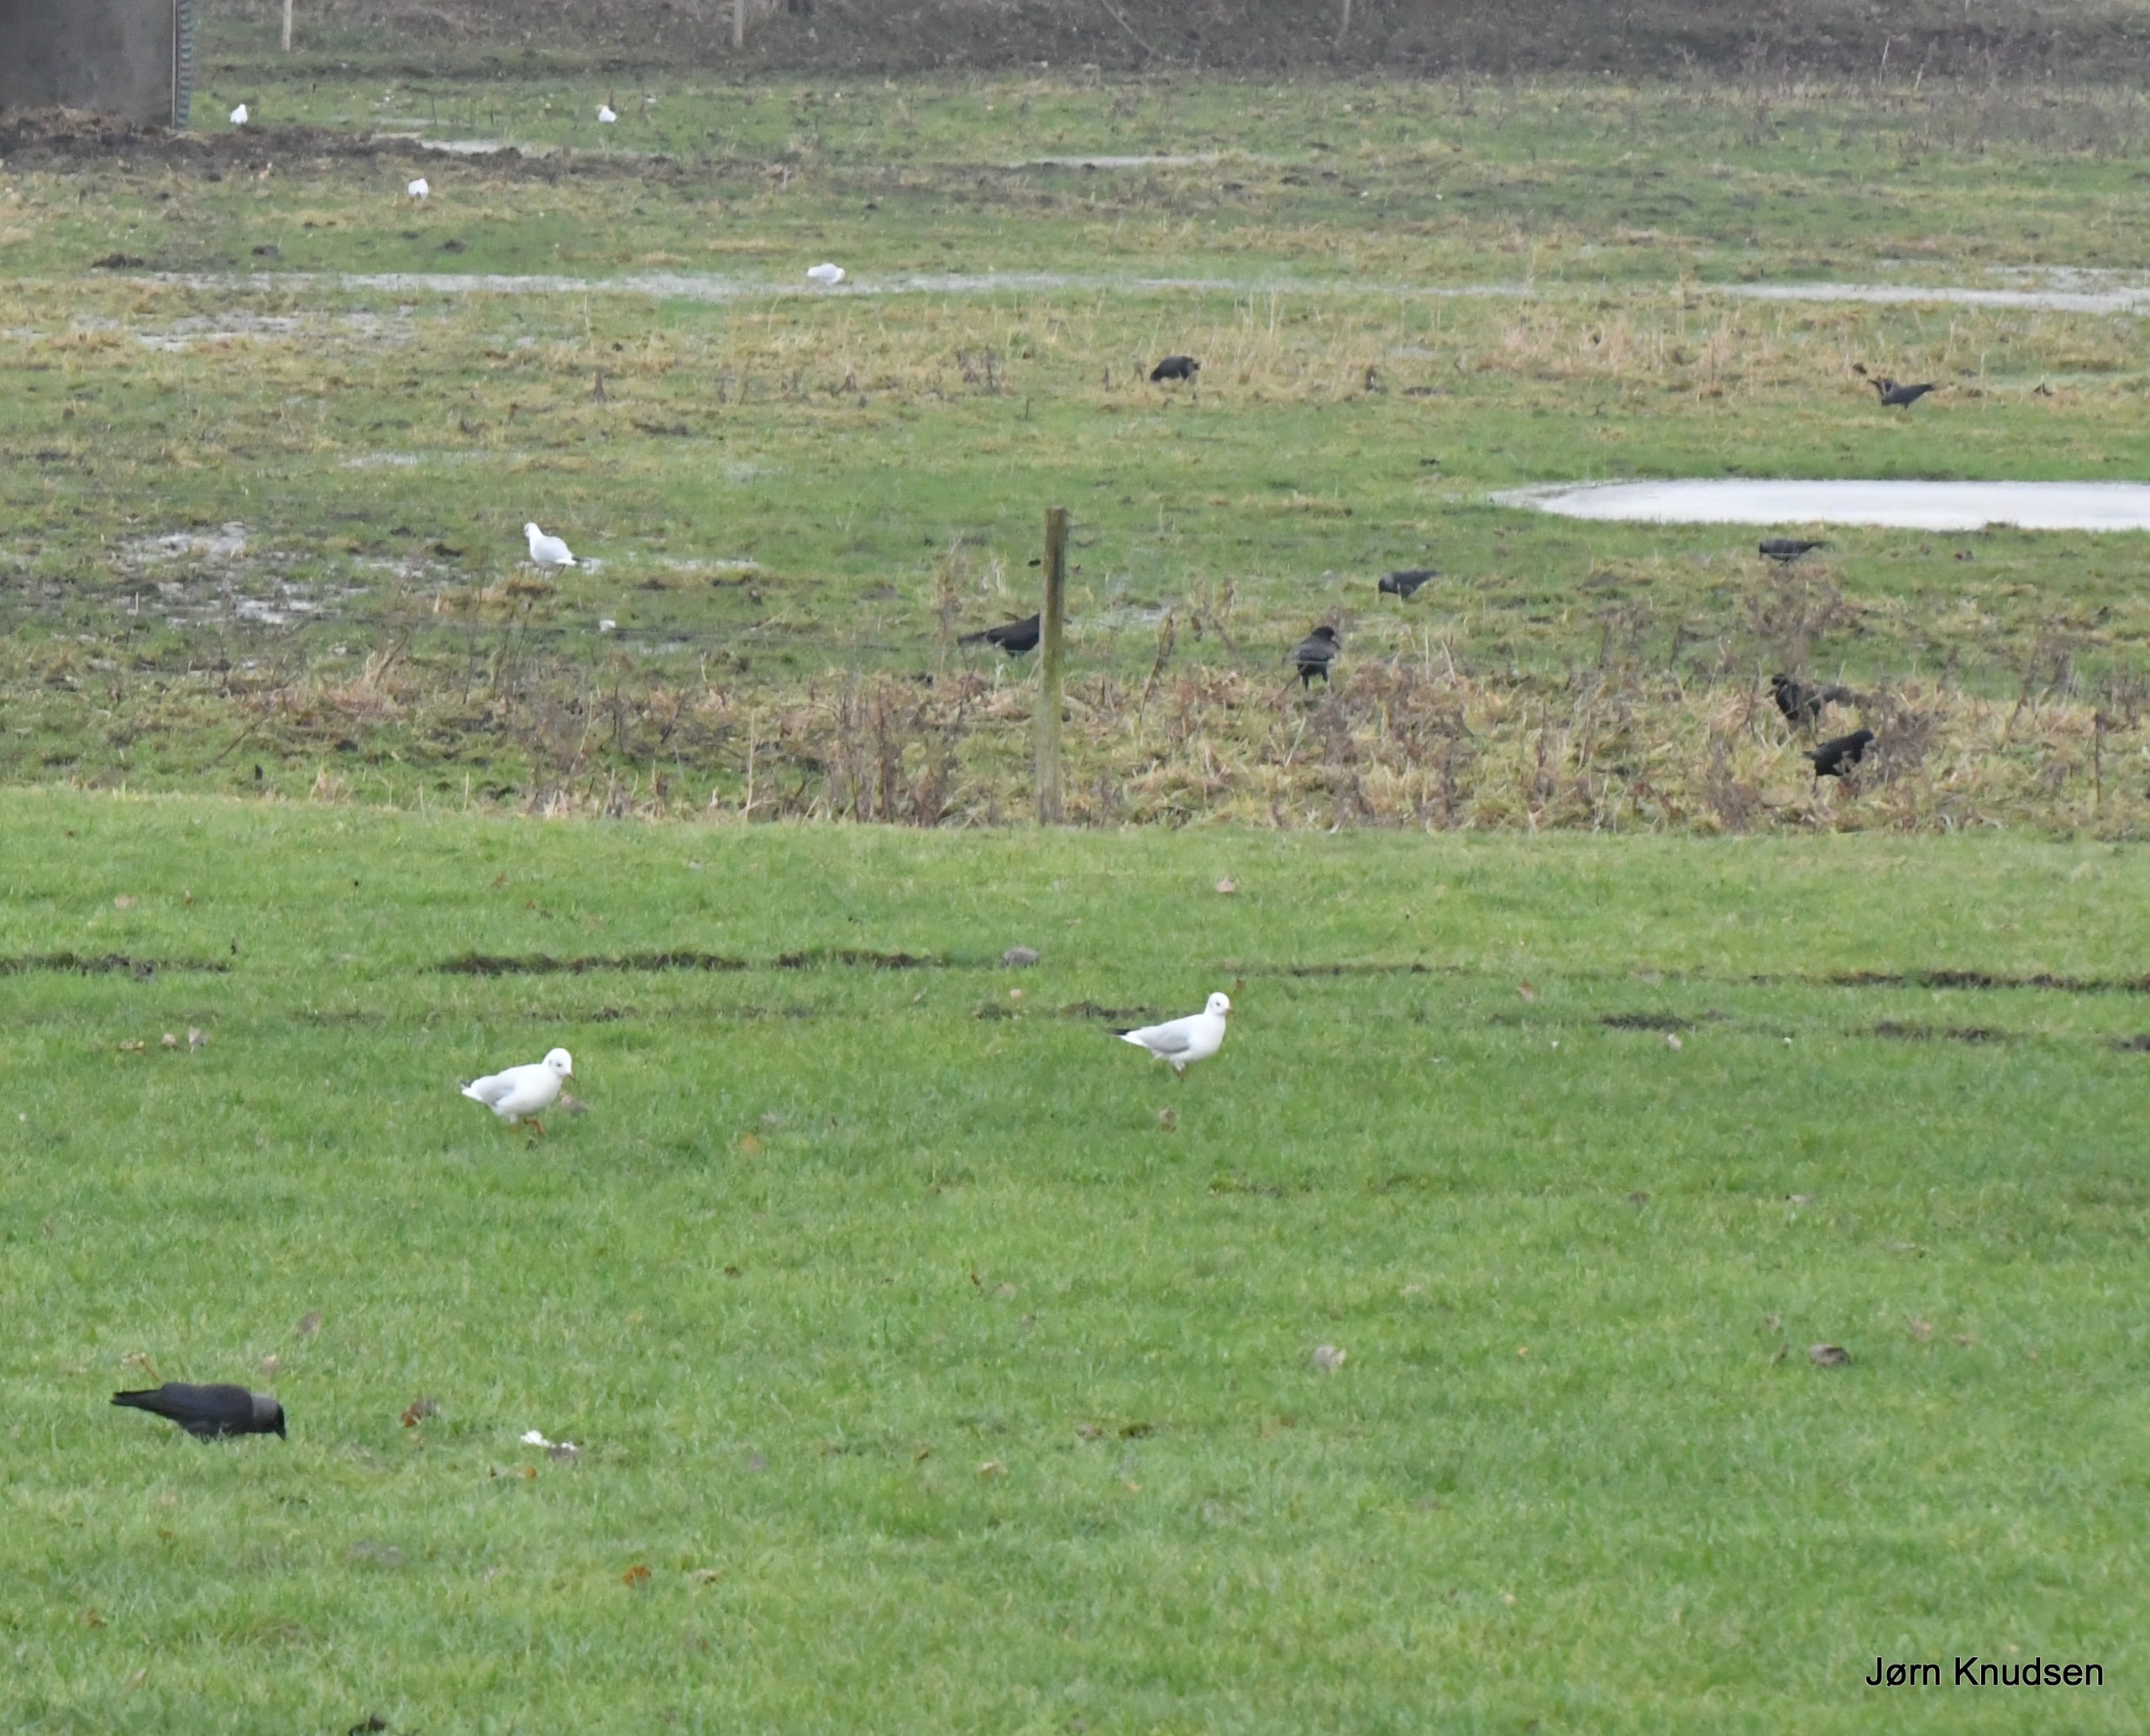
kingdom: Animalia
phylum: Chordata
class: Aves
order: Passeriformes
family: Corvidae
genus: Coloeus
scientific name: Coloeus monedula
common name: Allike
